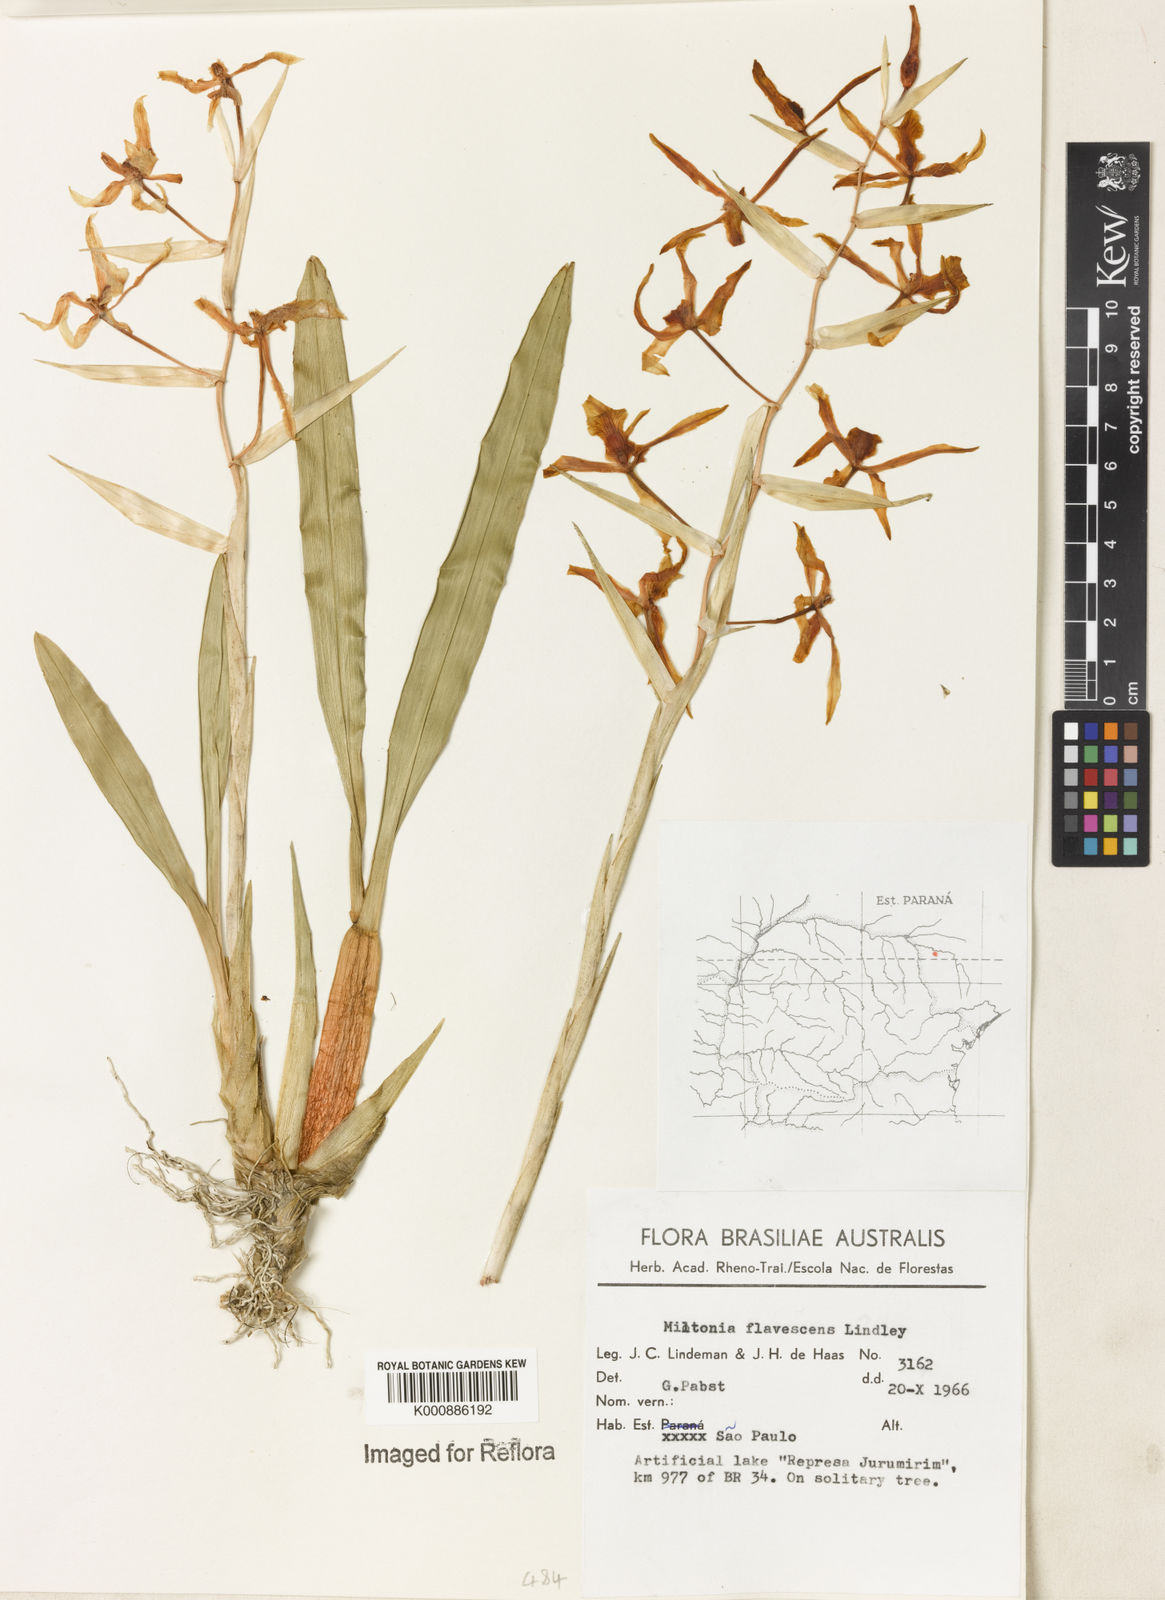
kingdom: Plantae
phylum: Tracheophyta
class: Liliopsida
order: Asparagales
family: Orchidaceae
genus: Miltonia
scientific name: Miltonia flavescens
